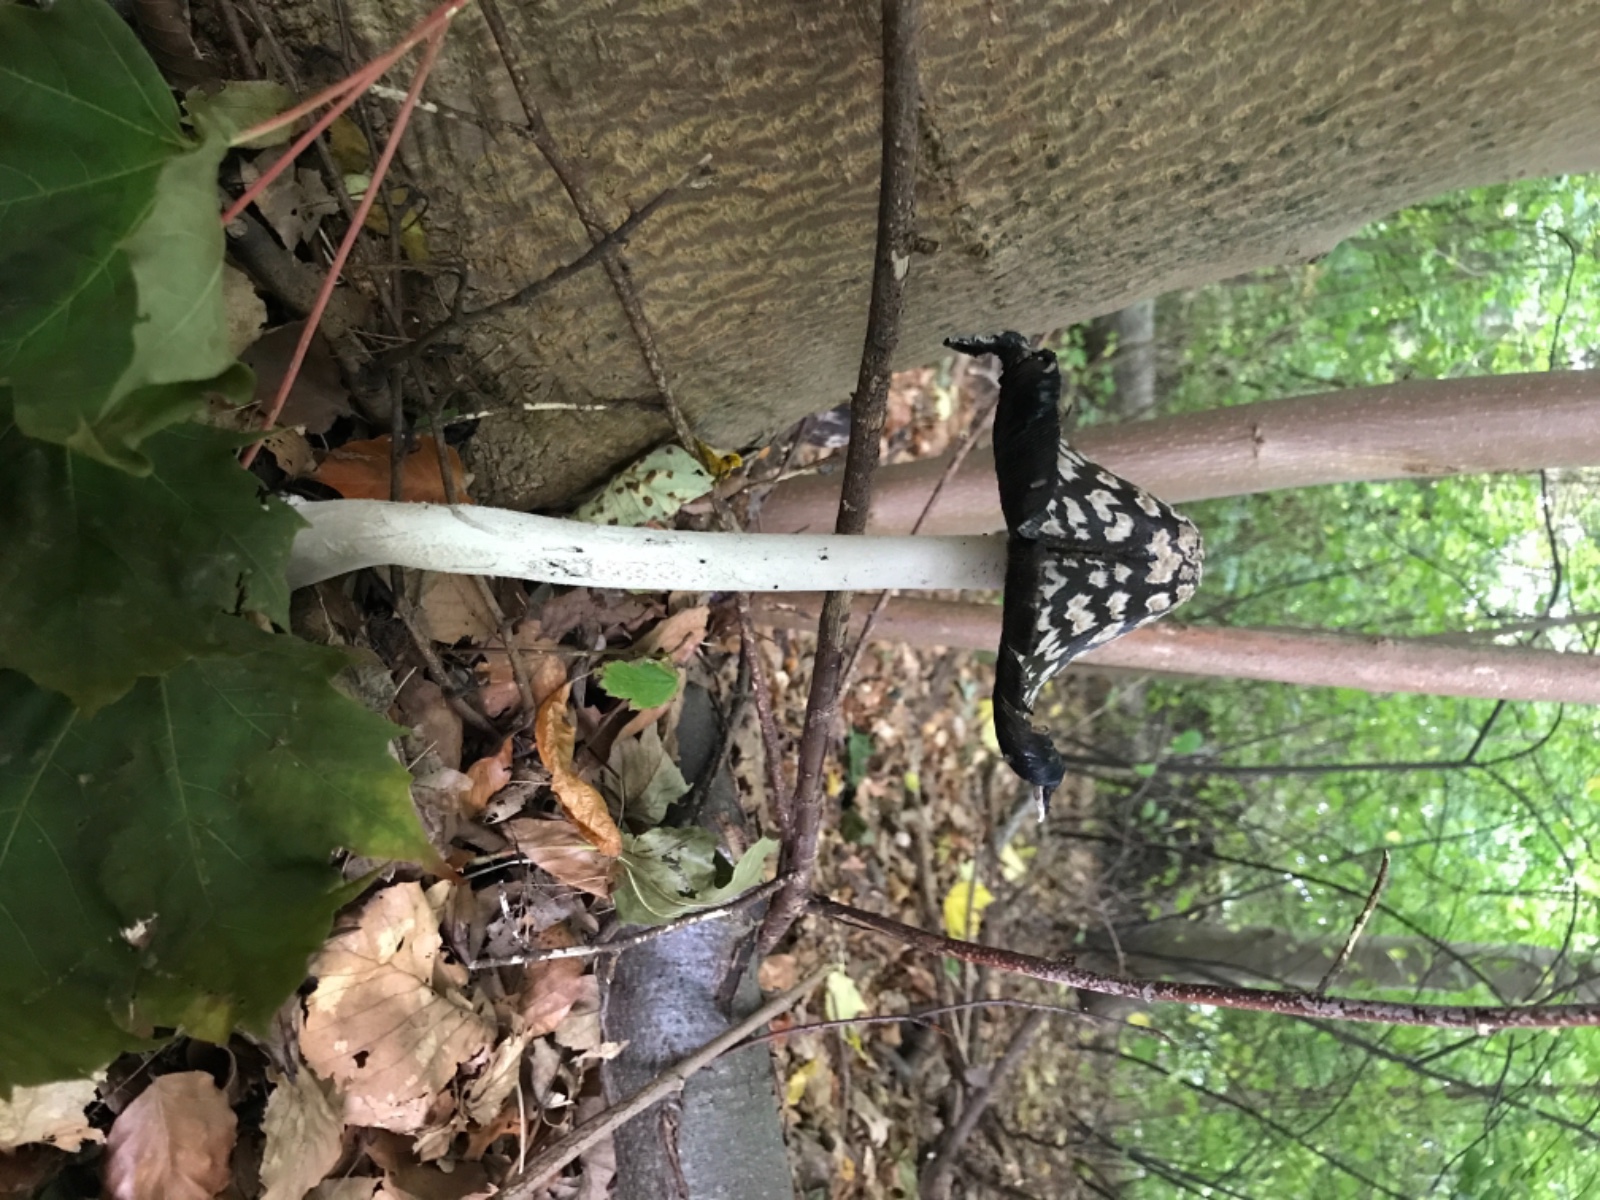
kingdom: Fungi
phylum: Basidiomycota
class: Agaricomycetes
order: Agaricales
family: Psathyrellaceae
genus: Coprinopsis
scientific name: Coprinopsis picacea
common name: skade-blækhat
